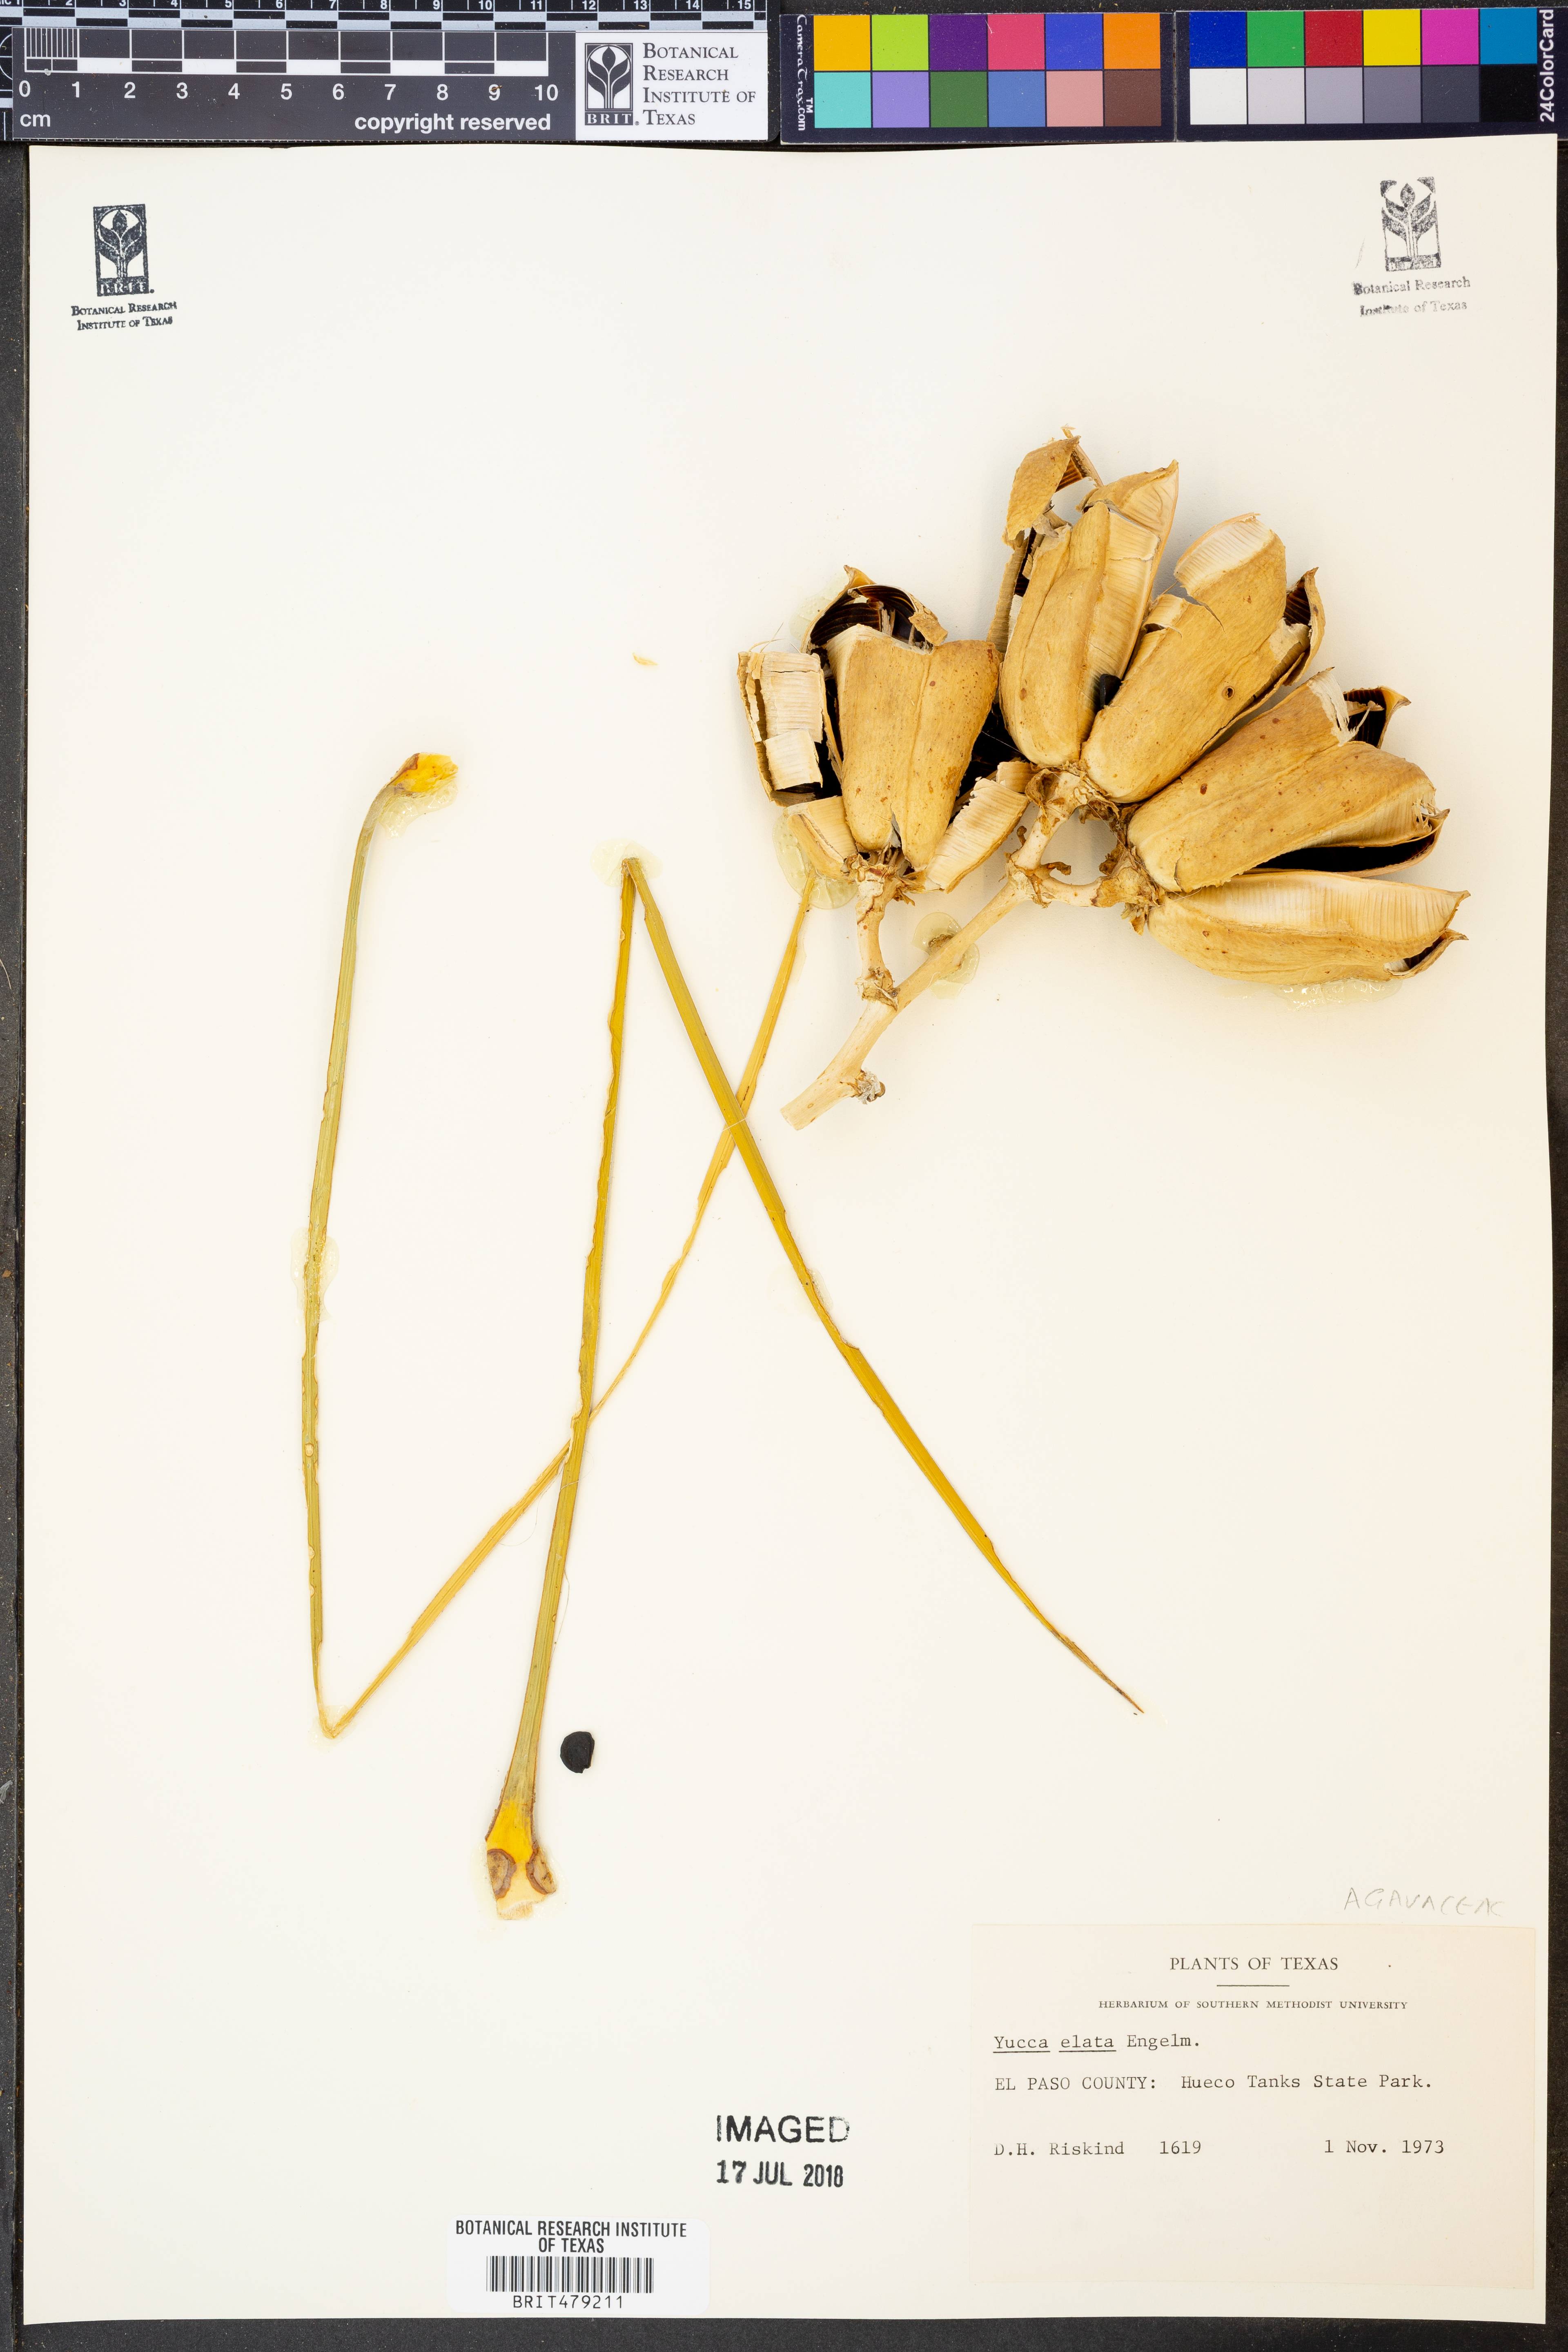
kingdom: Plantae
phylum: Tracheophyta
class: Liliopsida
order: Asparagales
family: Asparagaceae
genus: Yucca
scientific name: Yucca elata
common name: Palmella
